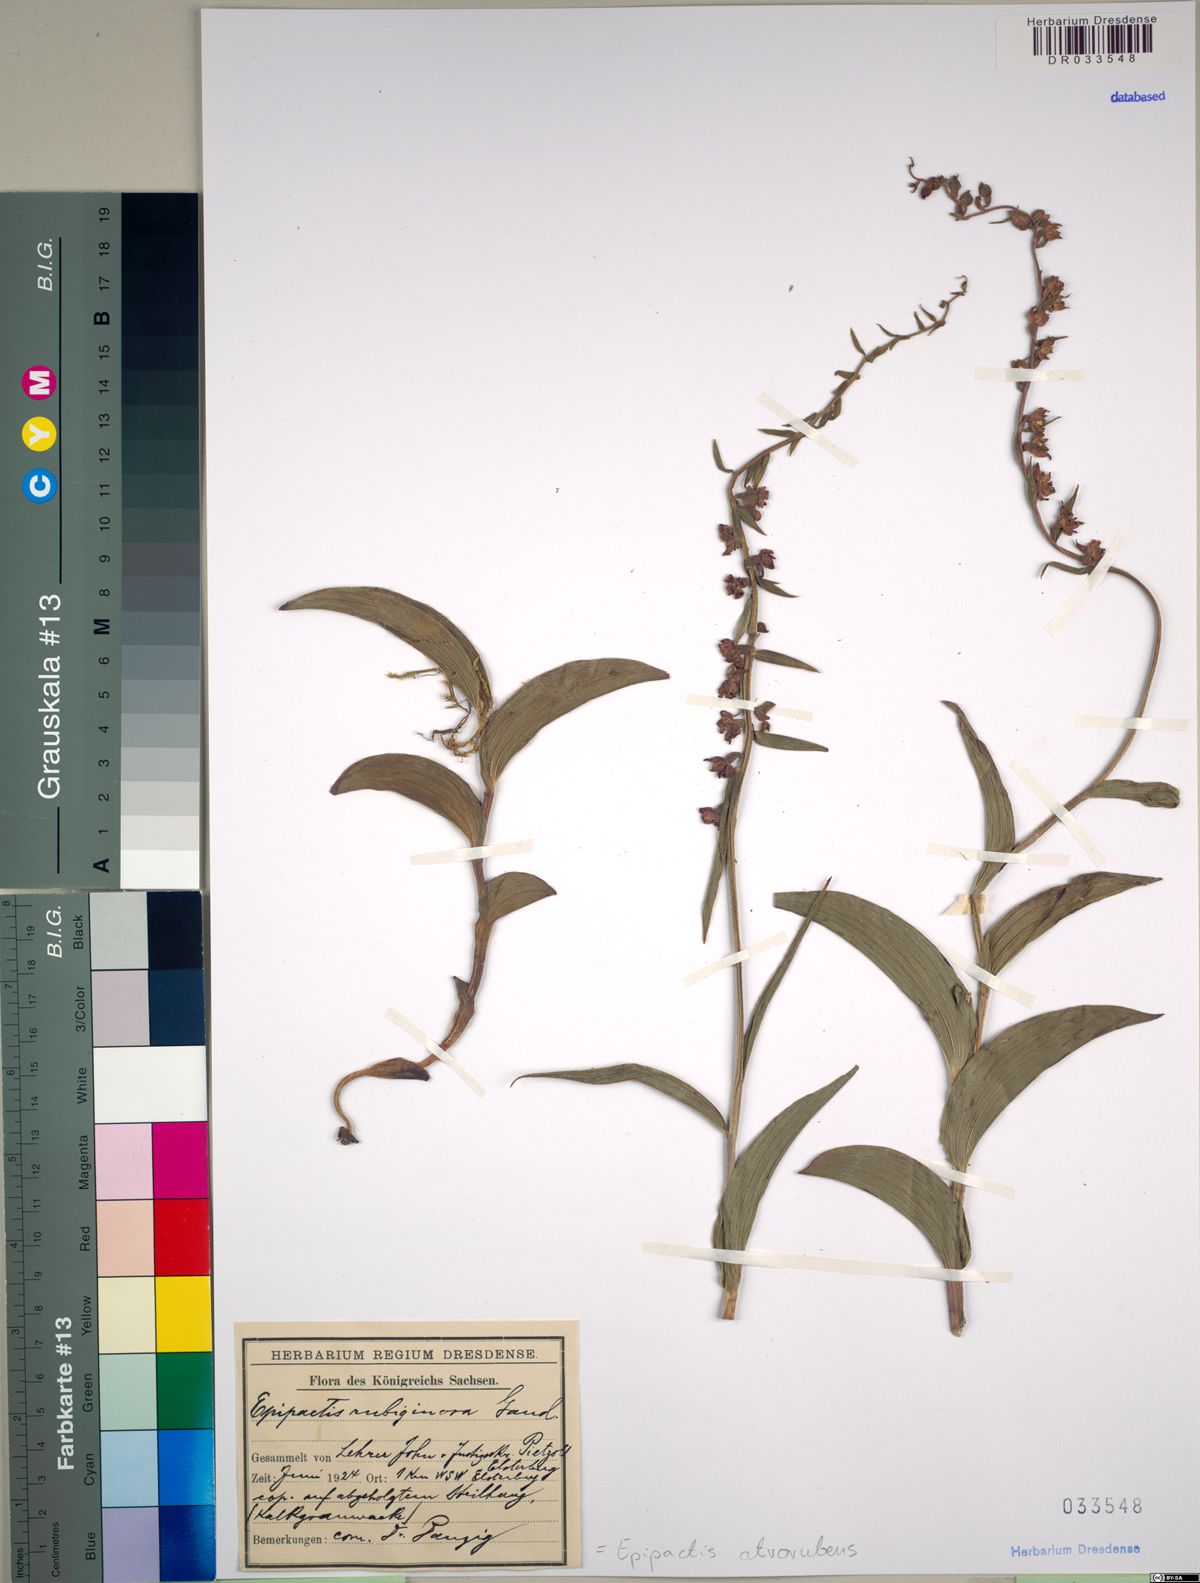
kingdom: Plantae
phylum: Tracheophyta
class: Liliopsida
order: Asparagales
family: Orchidaceae
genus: Epipactis
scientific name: Epipactis atrorubens
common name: Dark-red helleborine
